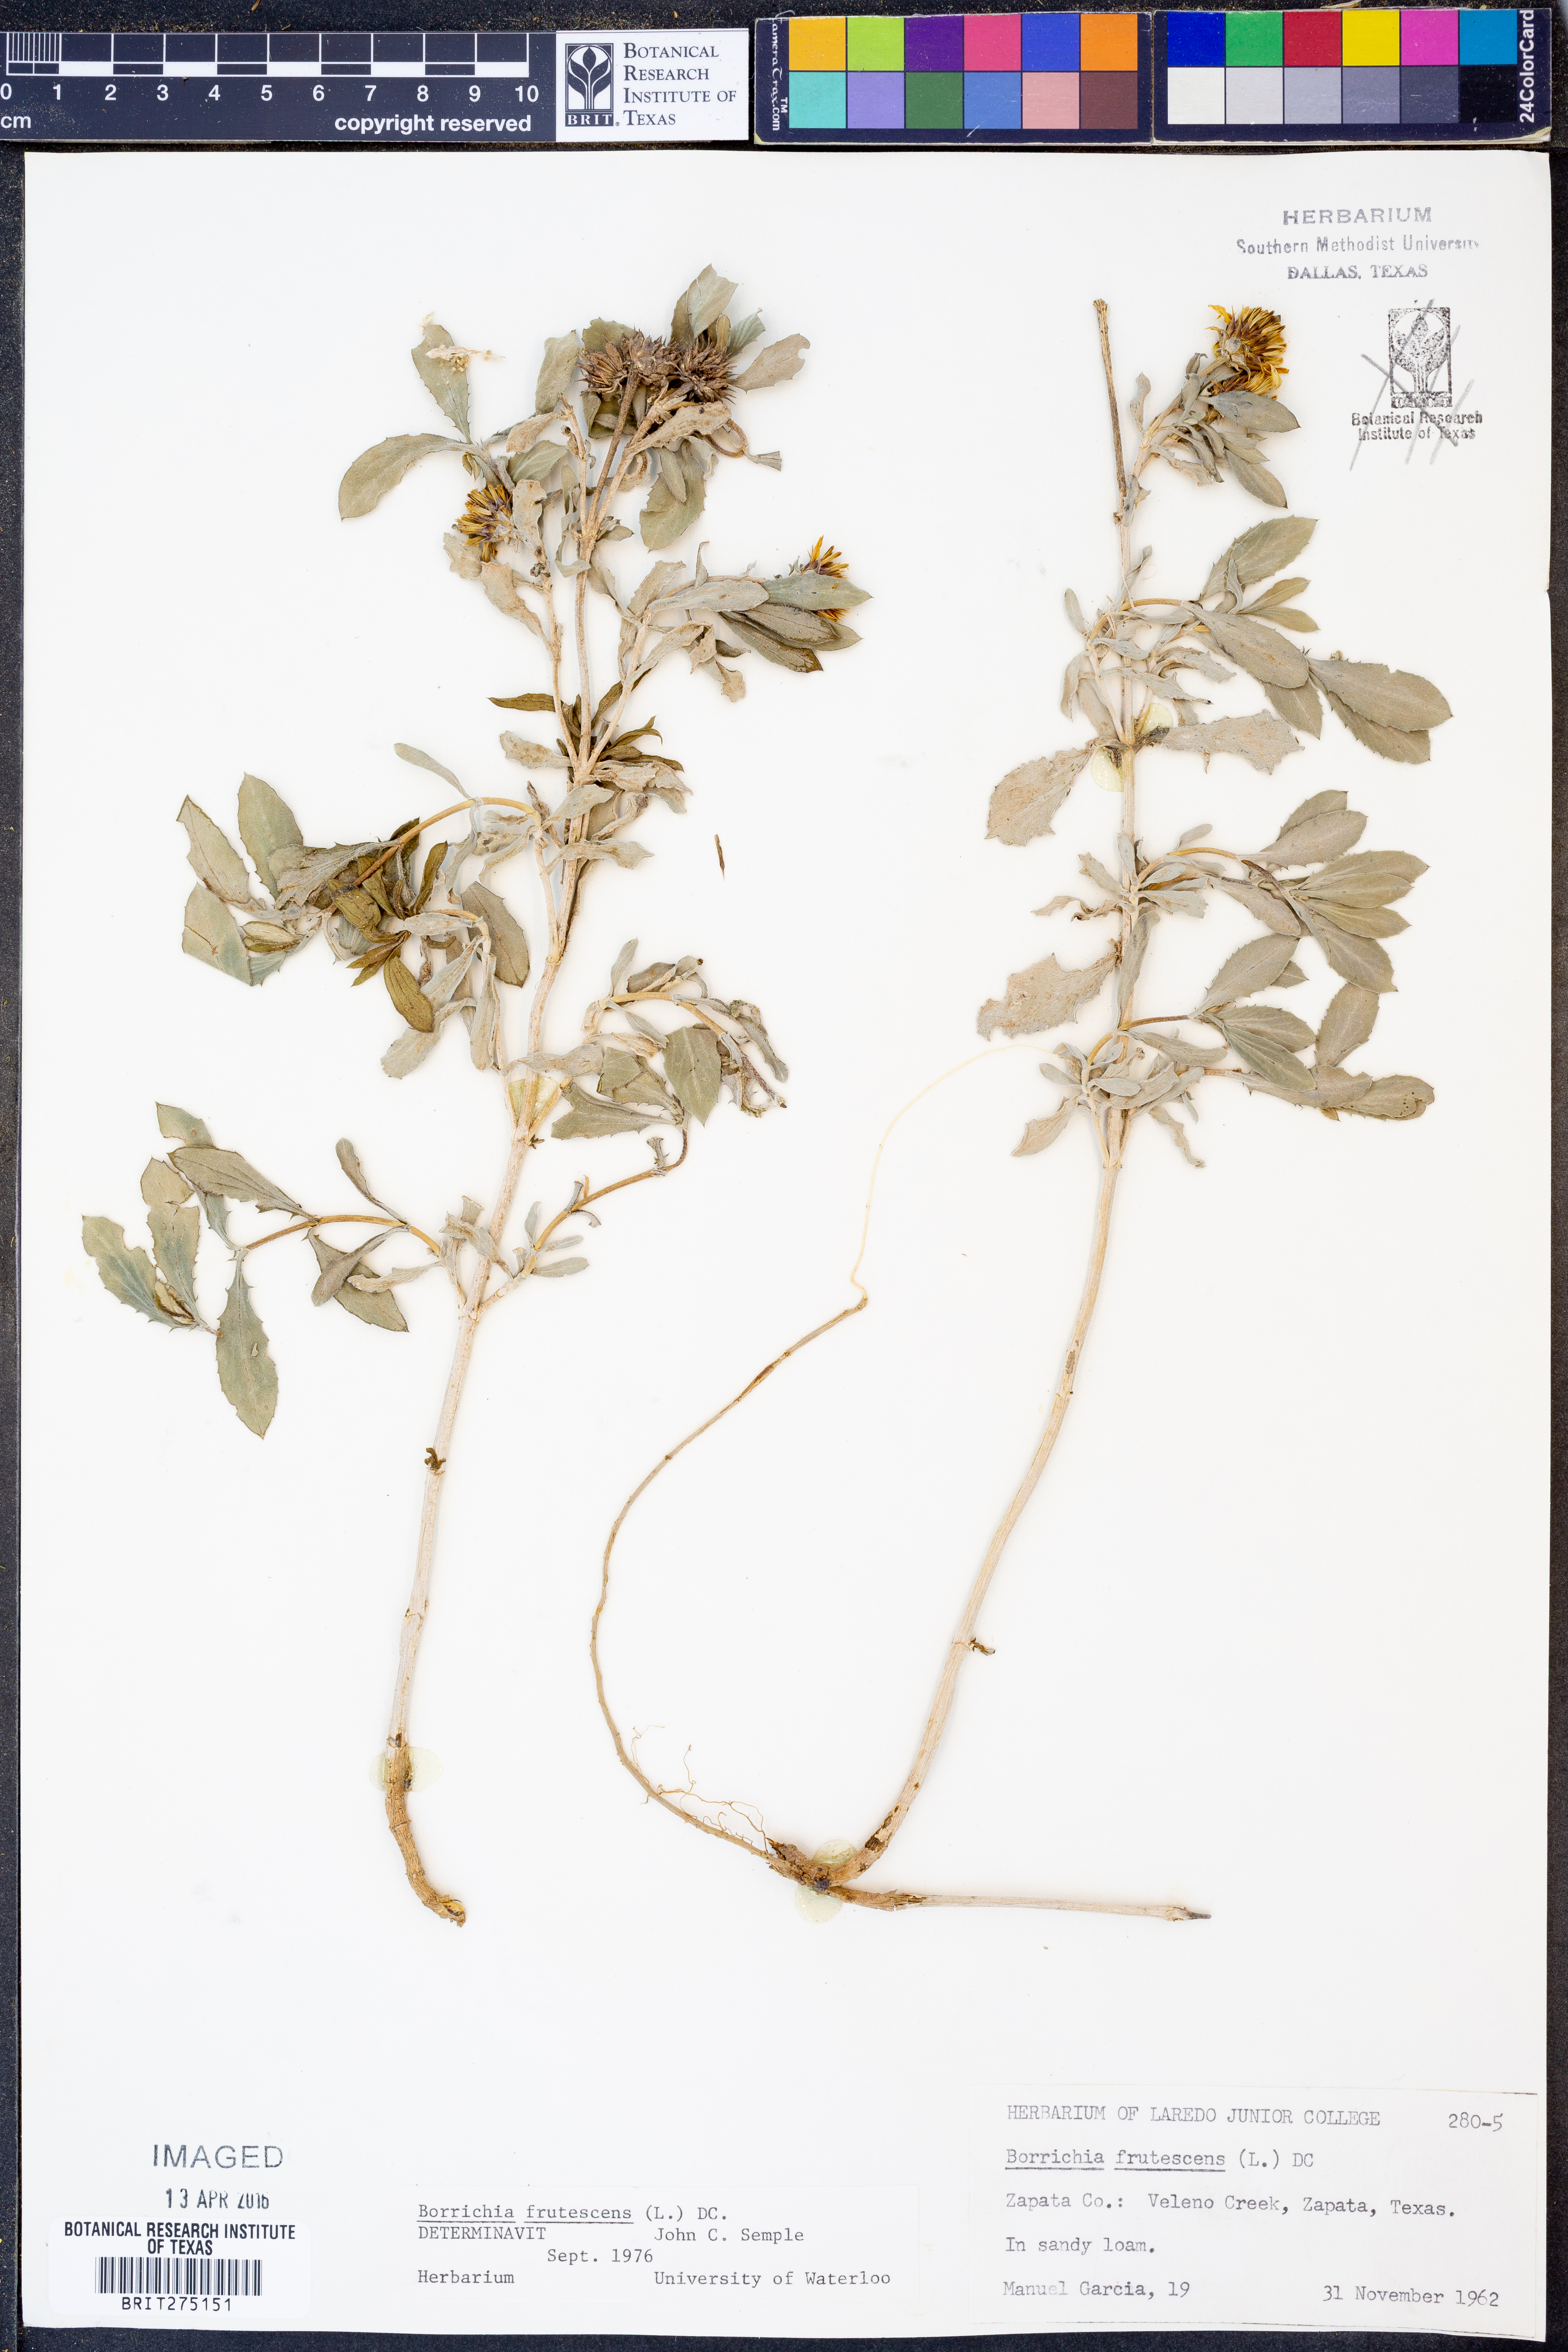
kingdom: Plantae
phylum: Tracheophyta
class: Magnoliopsida
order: Asterales
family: Asteraceae
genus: Borrichia
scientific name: Borrichia frutescens
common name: Sea oxeye
